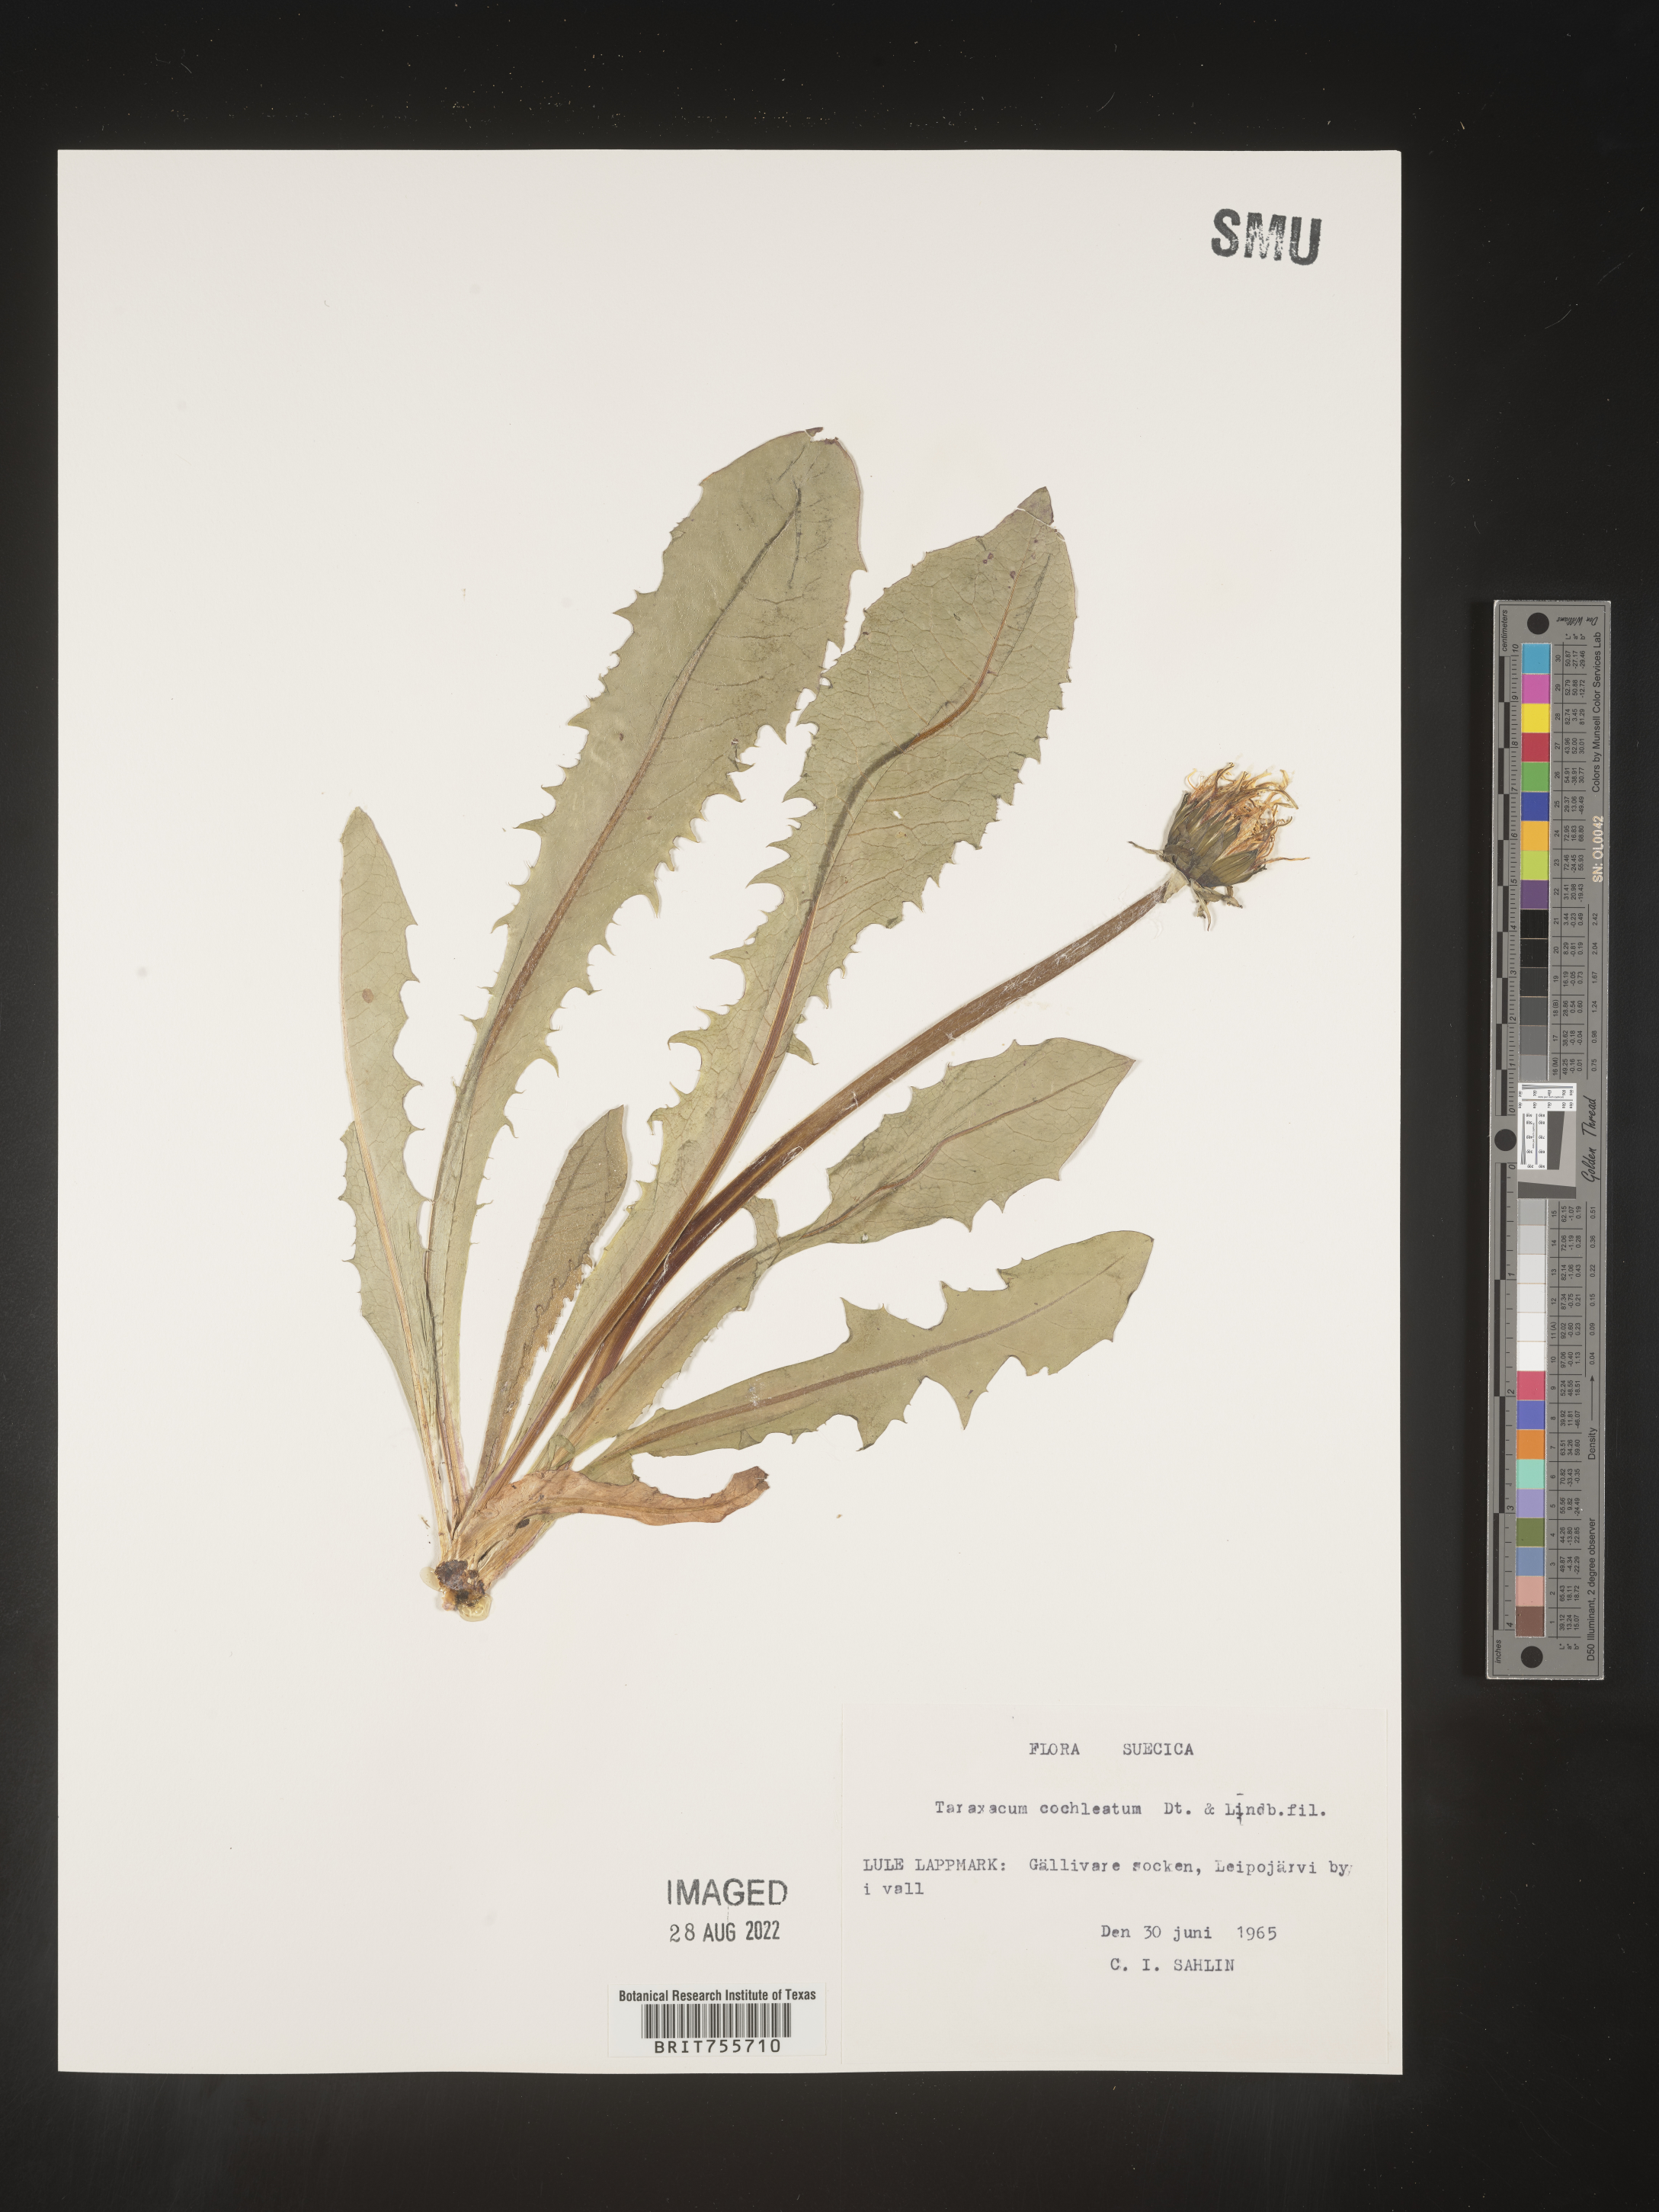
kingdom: Plantae
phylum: Tracheophyta
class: Magnoliopsida
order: Asterales
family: Asteraceae
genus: Taraxacum
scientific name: Taraxacum
